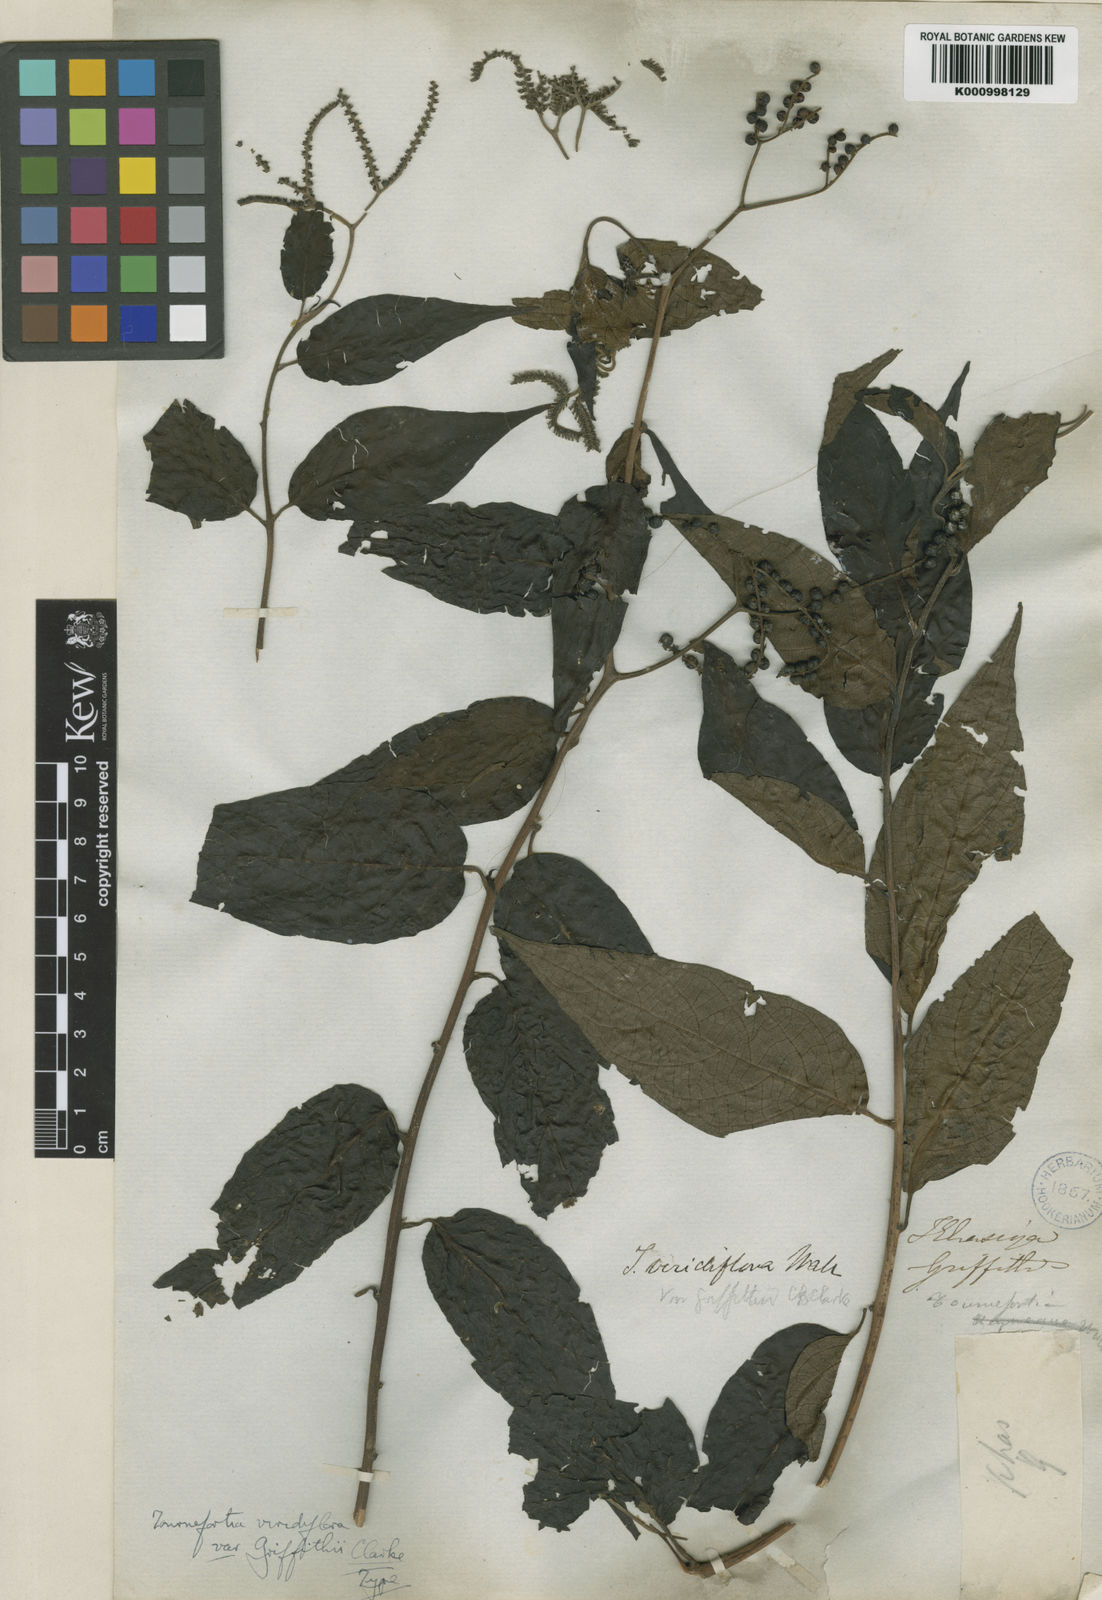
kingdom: Plantae
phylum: Tracheophyta
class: Magnoliopsida
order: Boraginales
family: Heliotropiaceae
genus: Tournefortia
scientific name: Tournefortia montana
